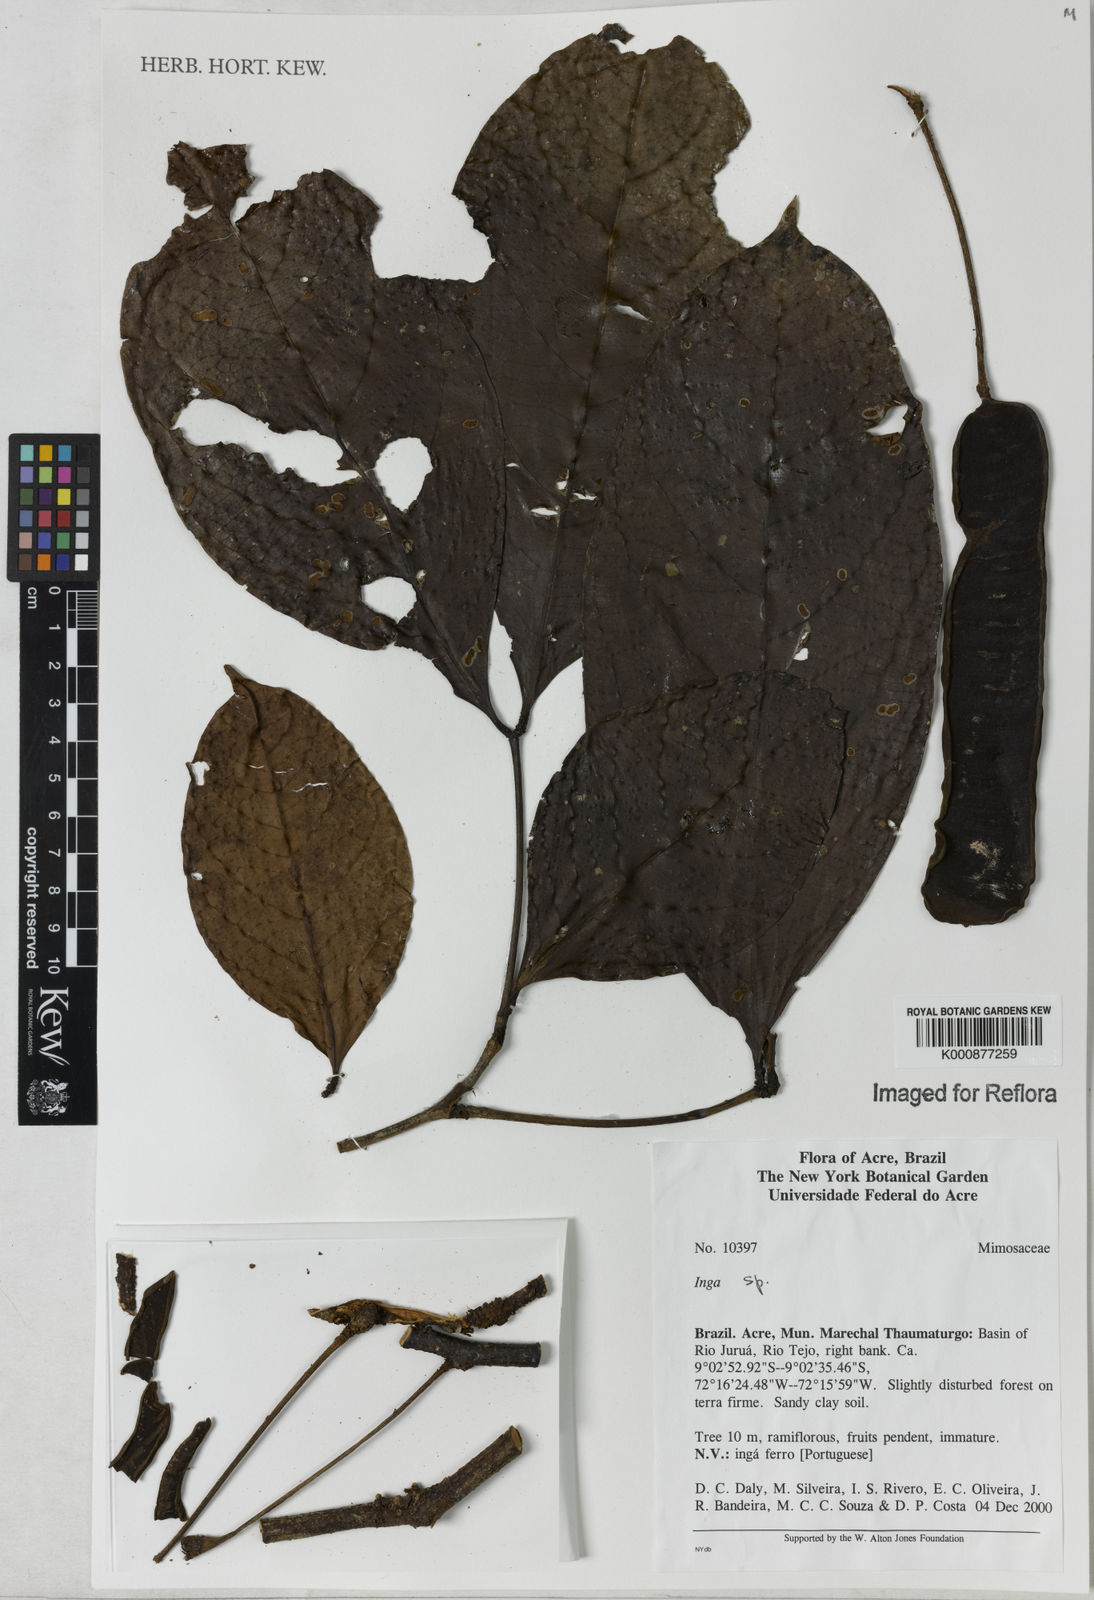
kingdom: Plantae
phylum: Tracheophyta
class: Magnoliopsida
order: Fabales
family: Fabaceae
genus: Inga
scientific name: Inga
